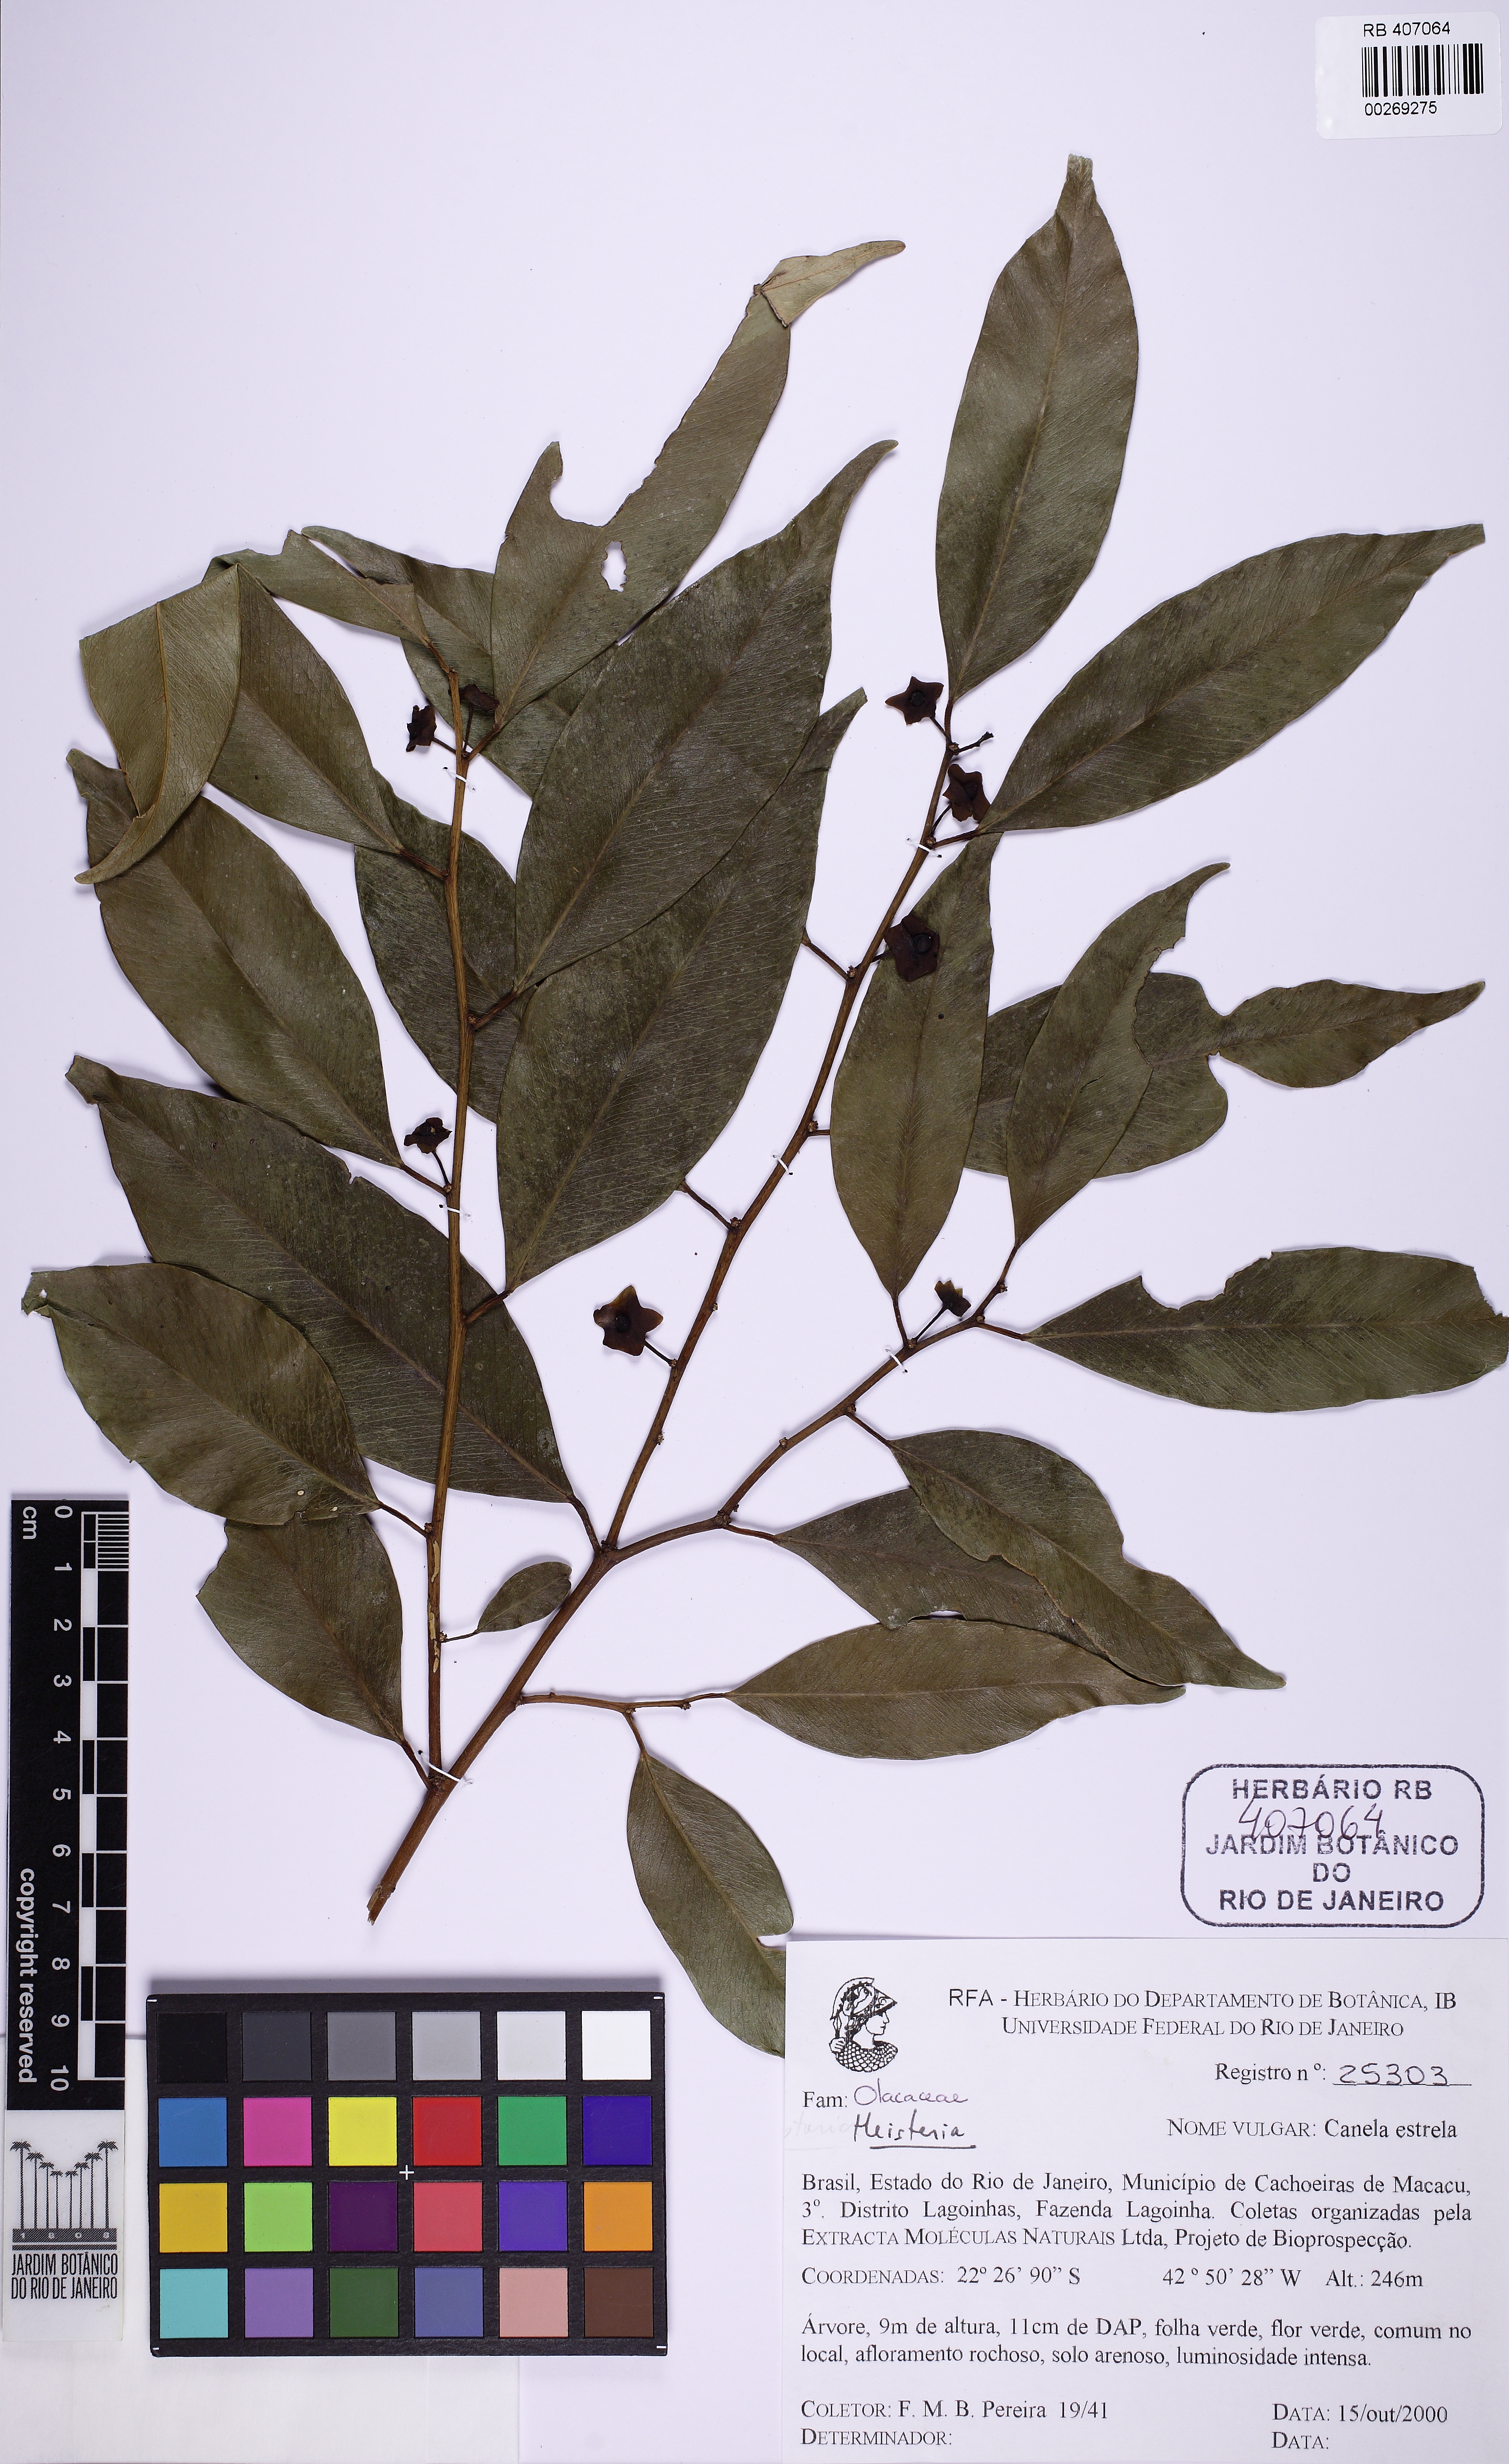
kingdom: Plantae
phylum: Tracheophyta
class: Magnoliopsida
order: Santalales
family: Erythropalaceae
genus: Heisteria
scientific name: Heisteria silvianii
